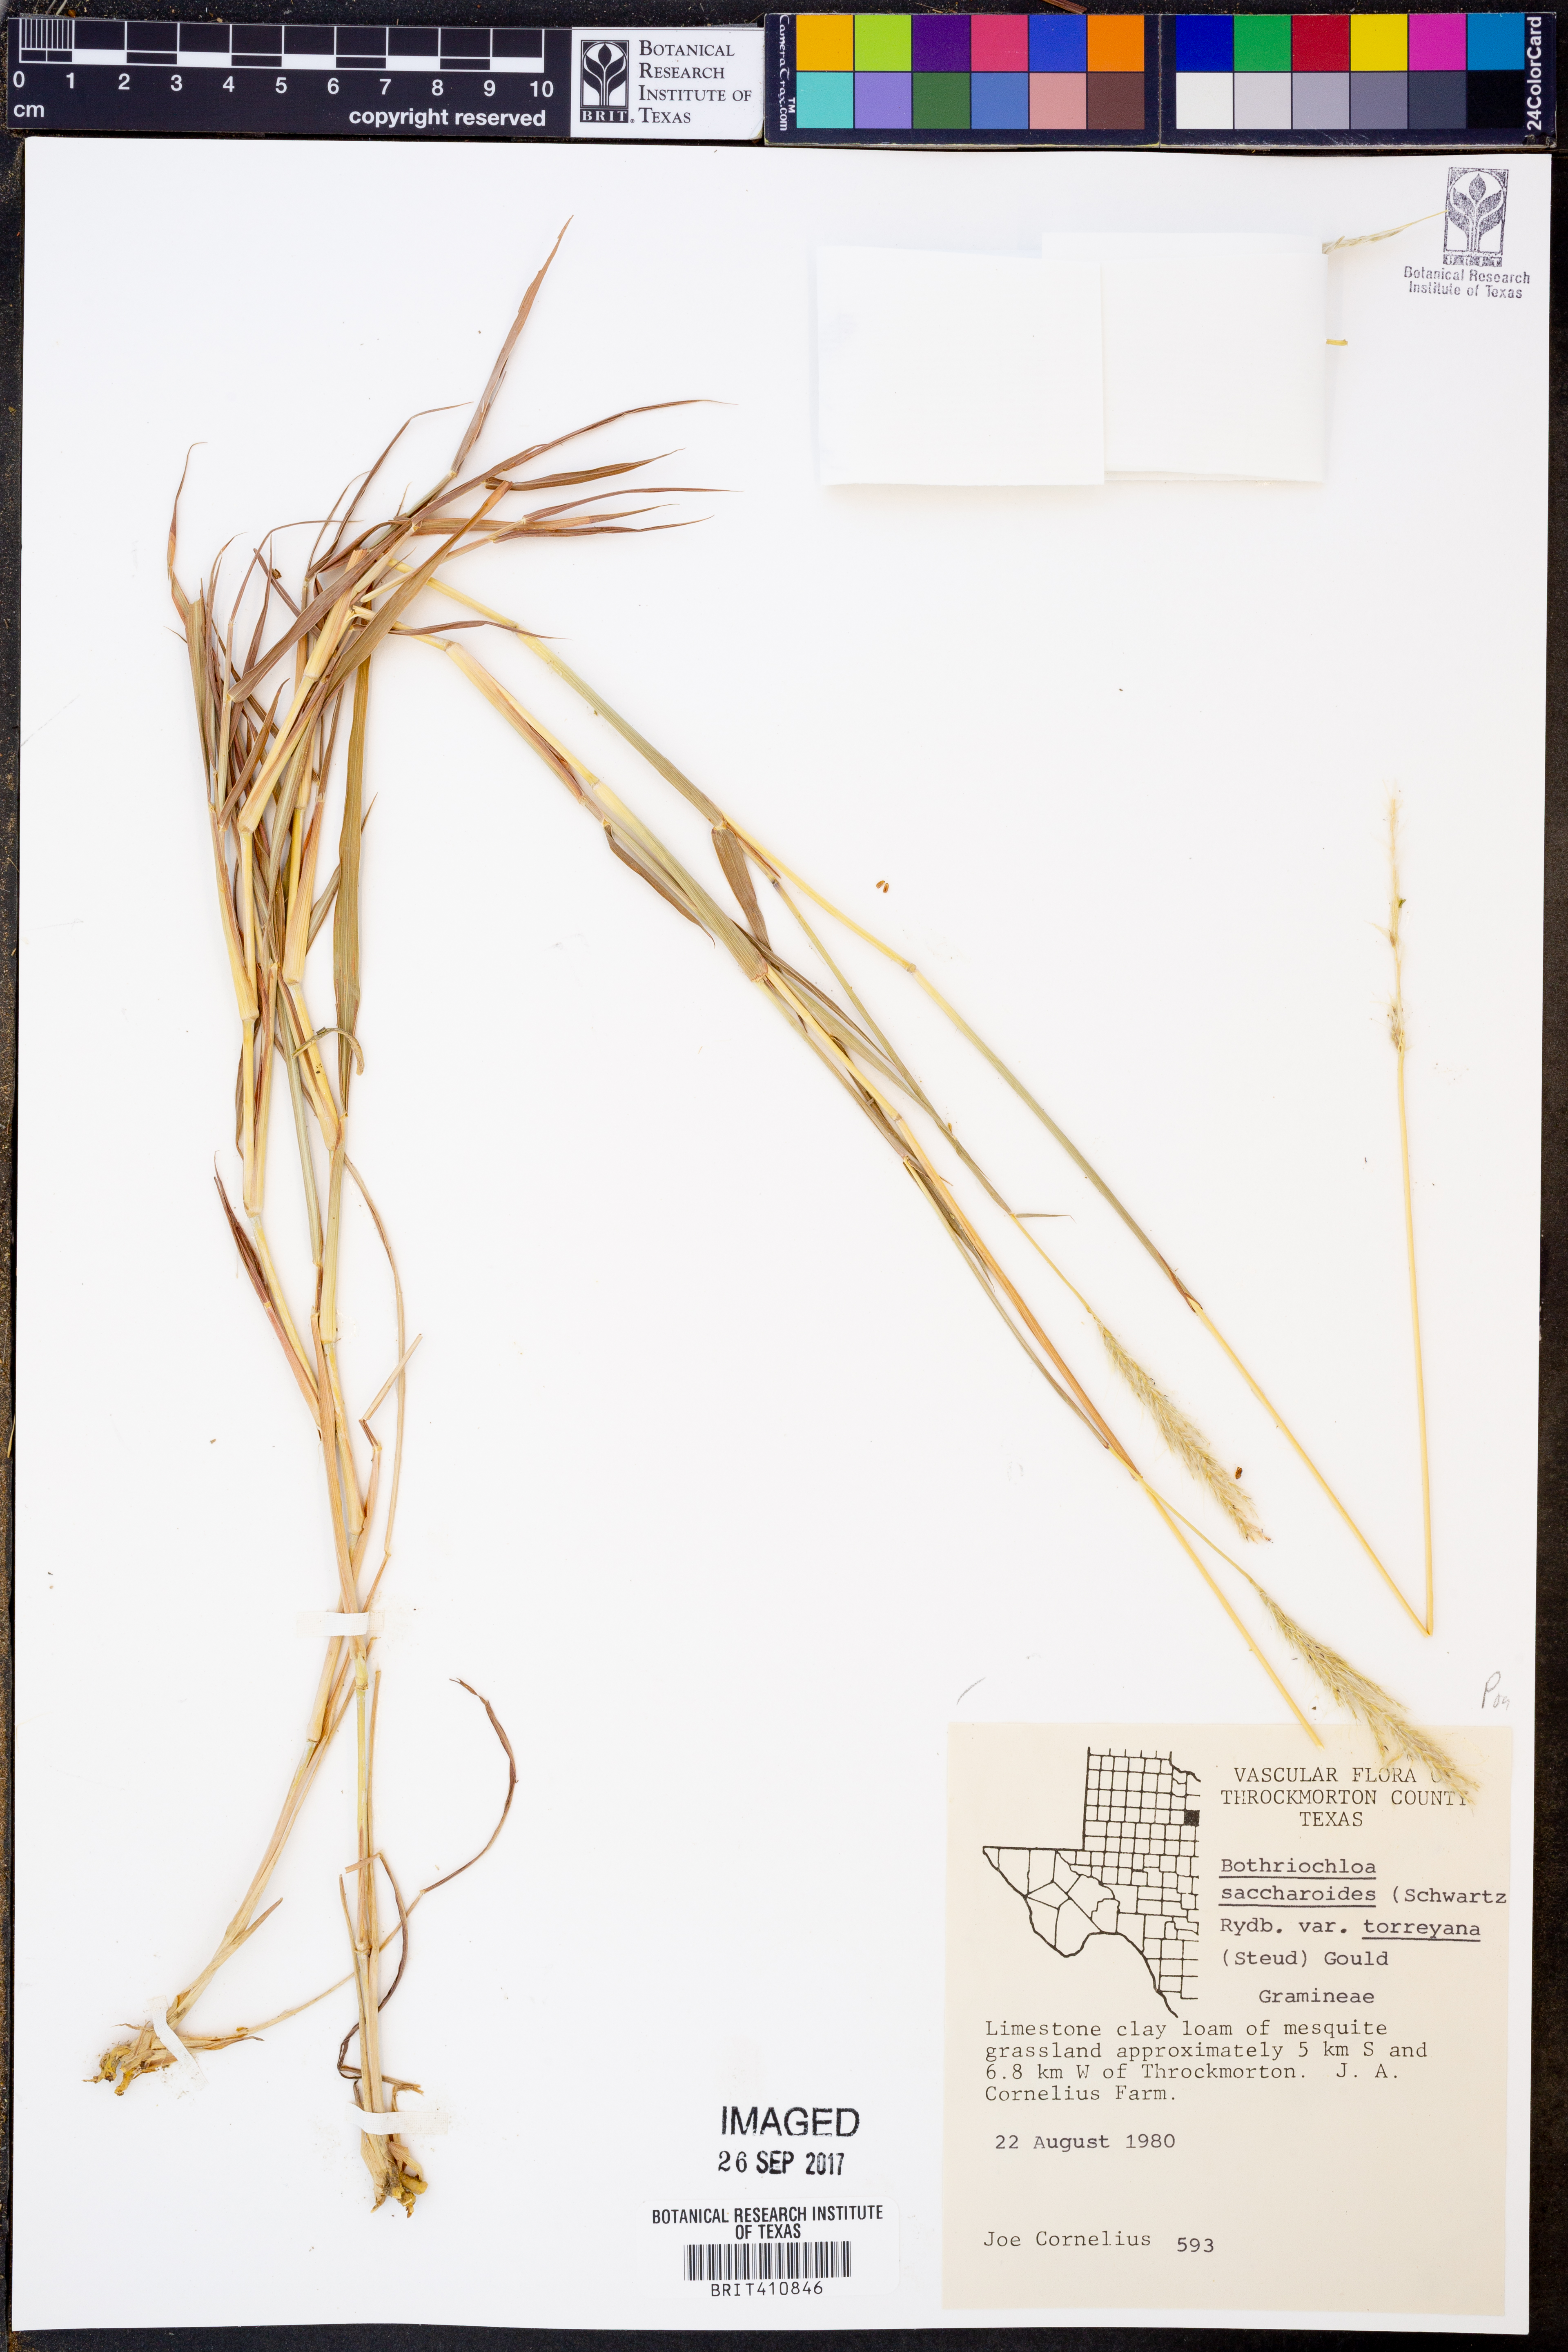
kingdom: Plantae
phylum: Tracheophyta
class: Liliopsida
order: Poales
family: Poaceae
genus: Bothriochloa
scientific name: Bothriochloa torreyana
